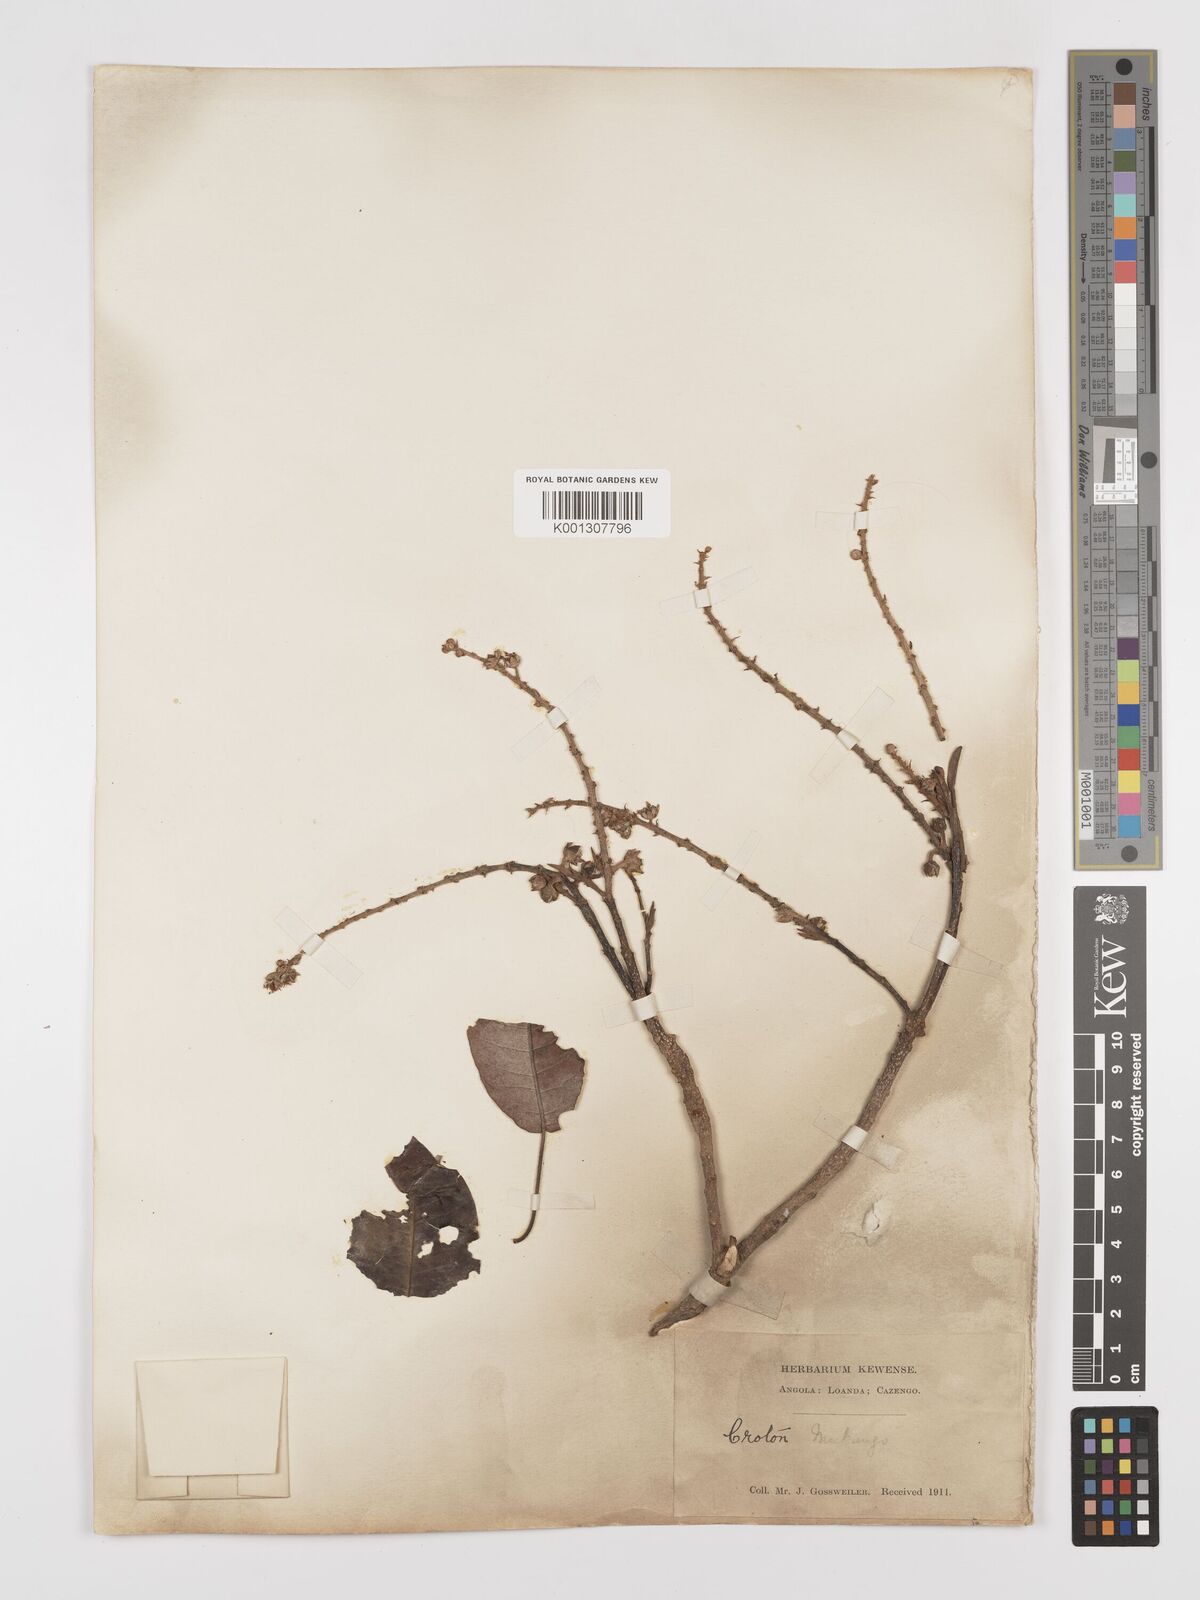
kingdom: Plantae
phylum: Tracheophyta
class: Magnoliopsida
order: Malpighiales
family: Euphorbiaceae
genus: Croton
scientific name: Croton mubango
